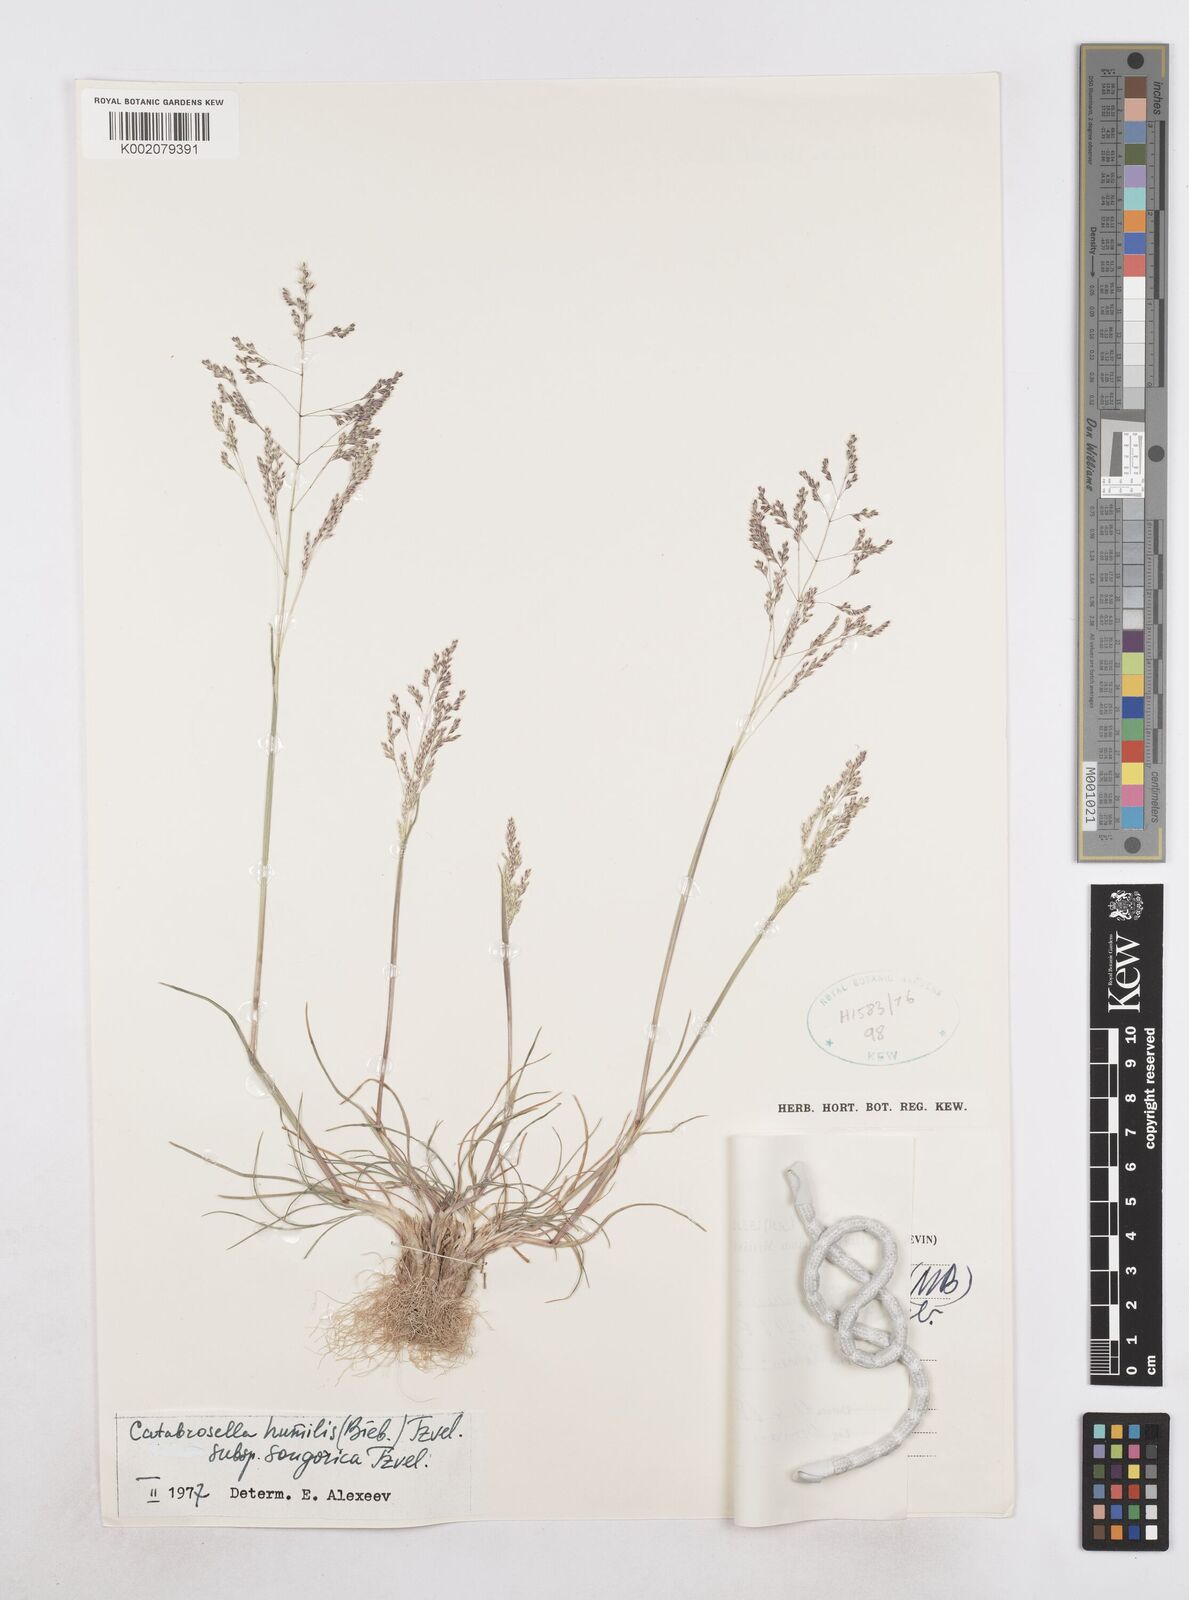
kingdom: Plantae
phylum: Tracheophyta
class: Liliopsida
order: Poales
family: Poaceae
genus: Catabrosella
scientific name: Catabrosella humilis
